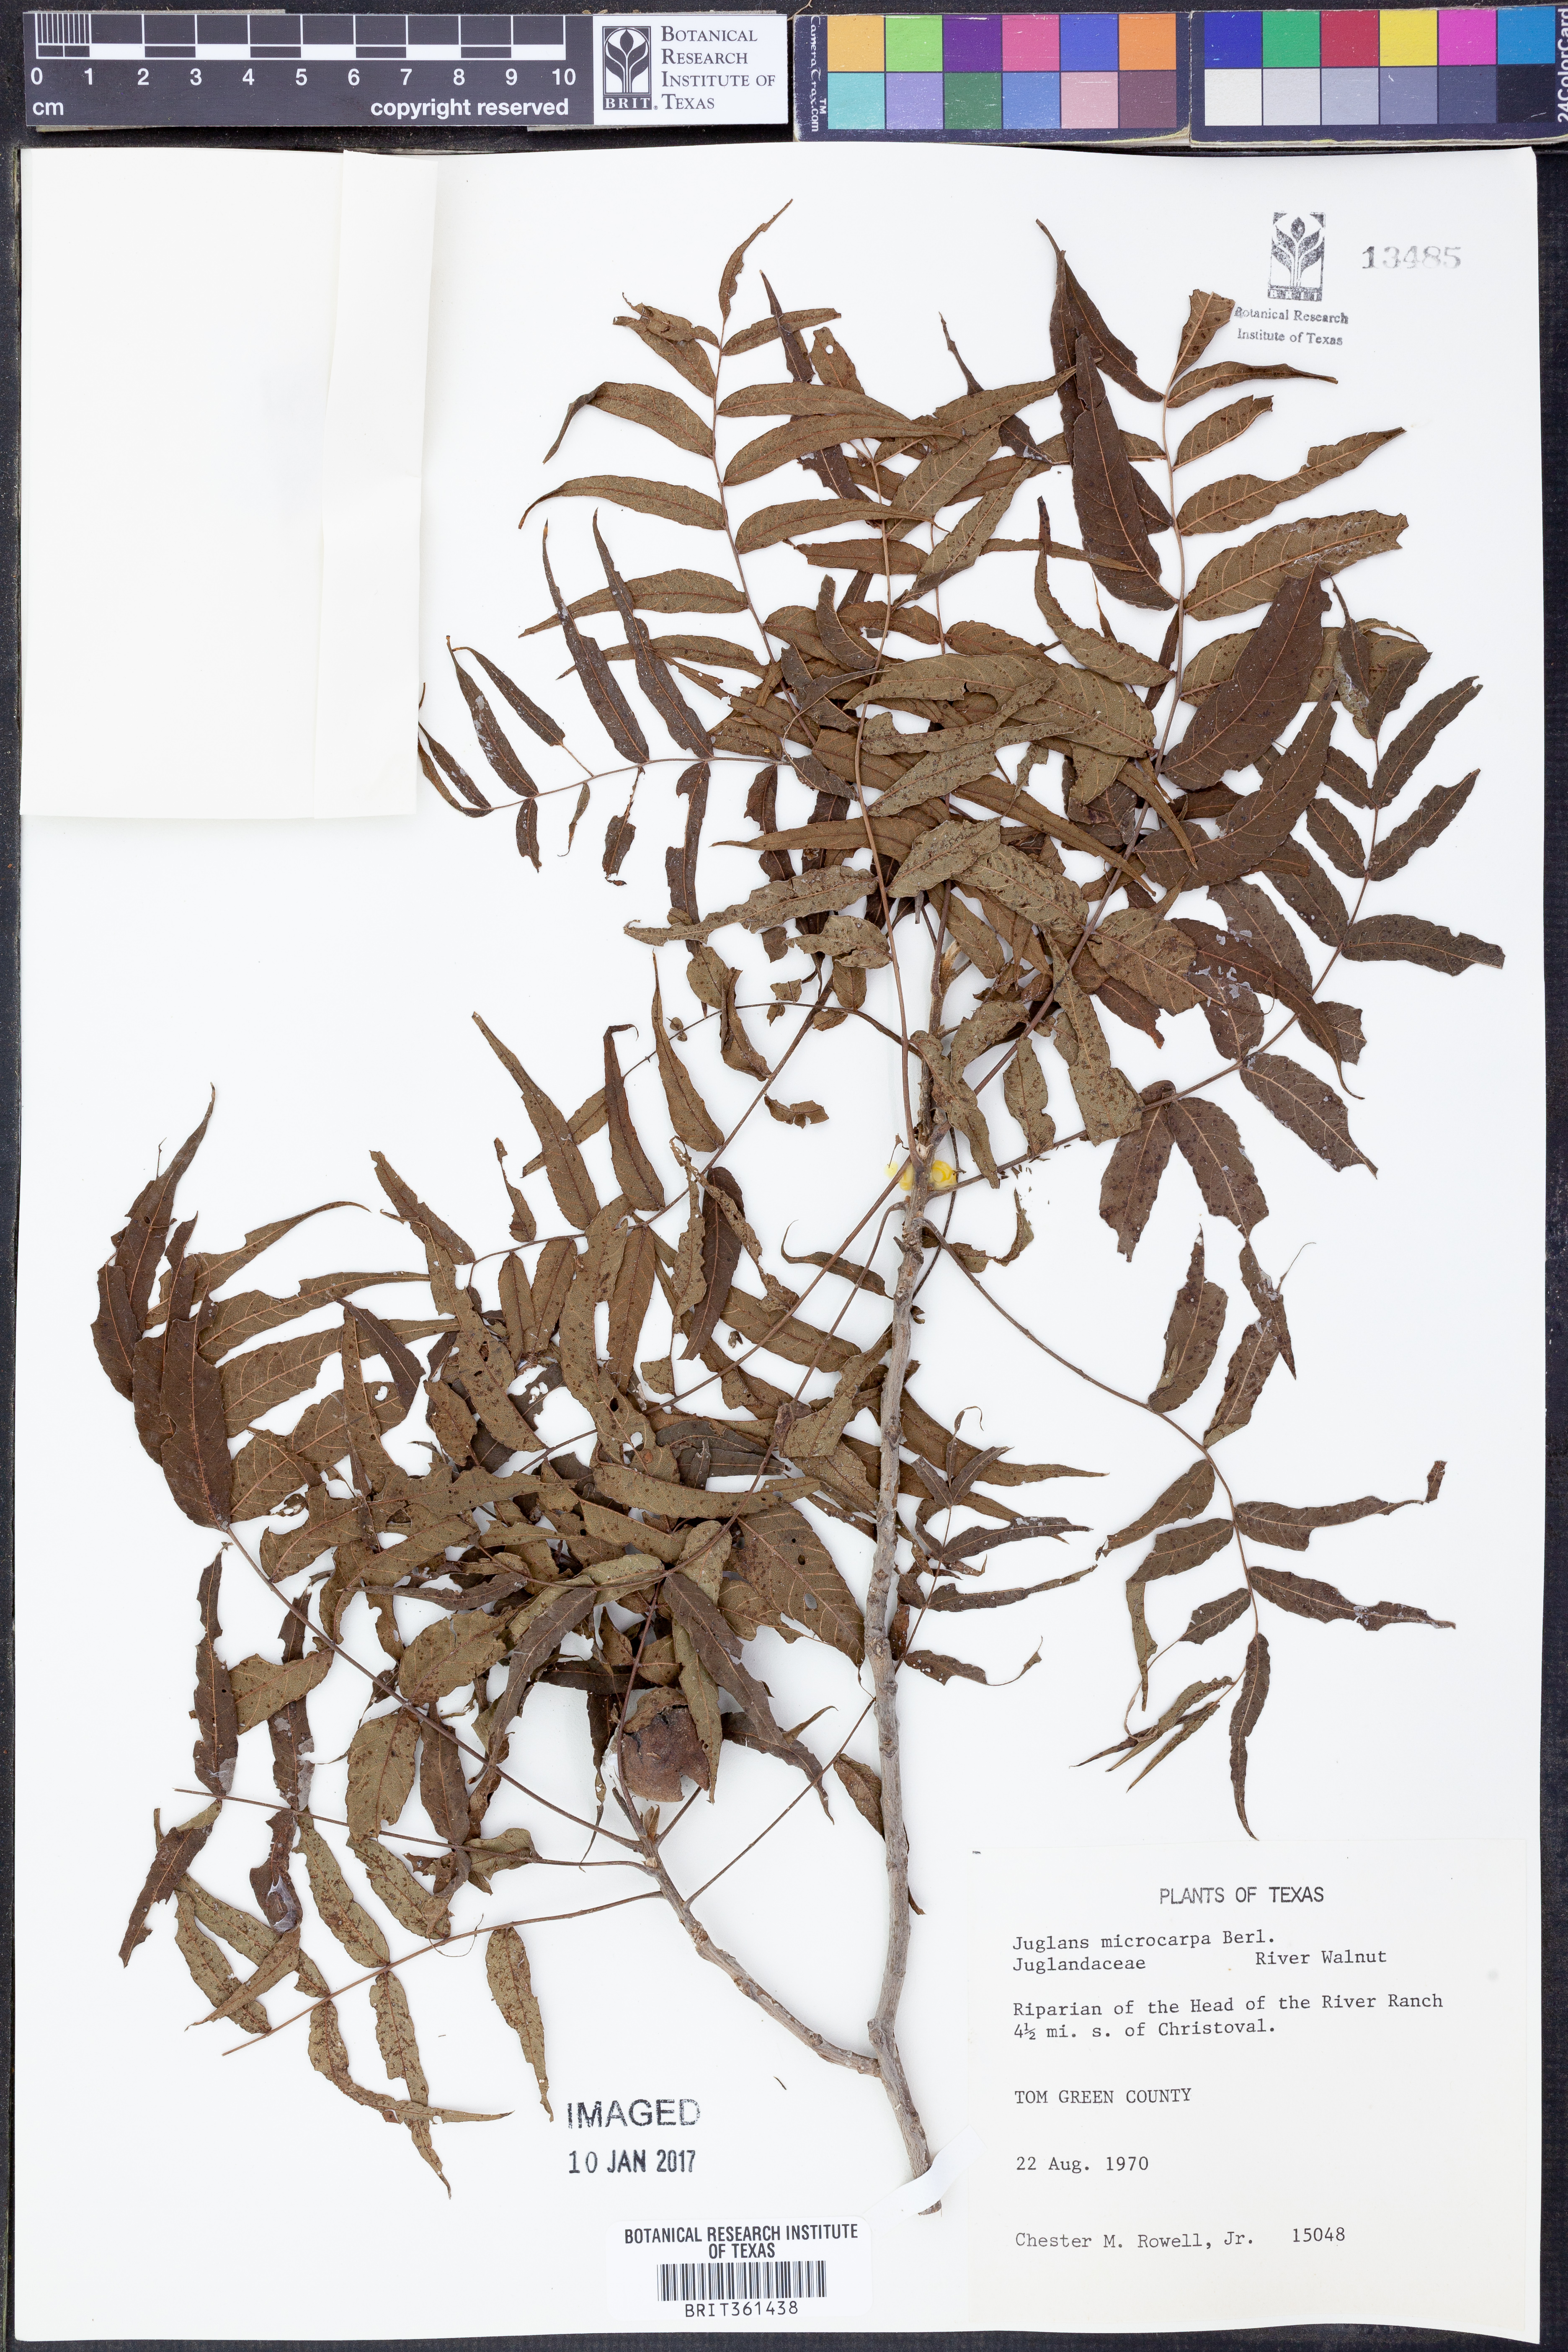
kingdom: Plantae
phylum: Tracheophyta
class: Magnoliopsida
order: Fagales
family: Juglandaceae
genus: Juglans
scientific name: Juglans microcarpa
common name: Texas walnut
